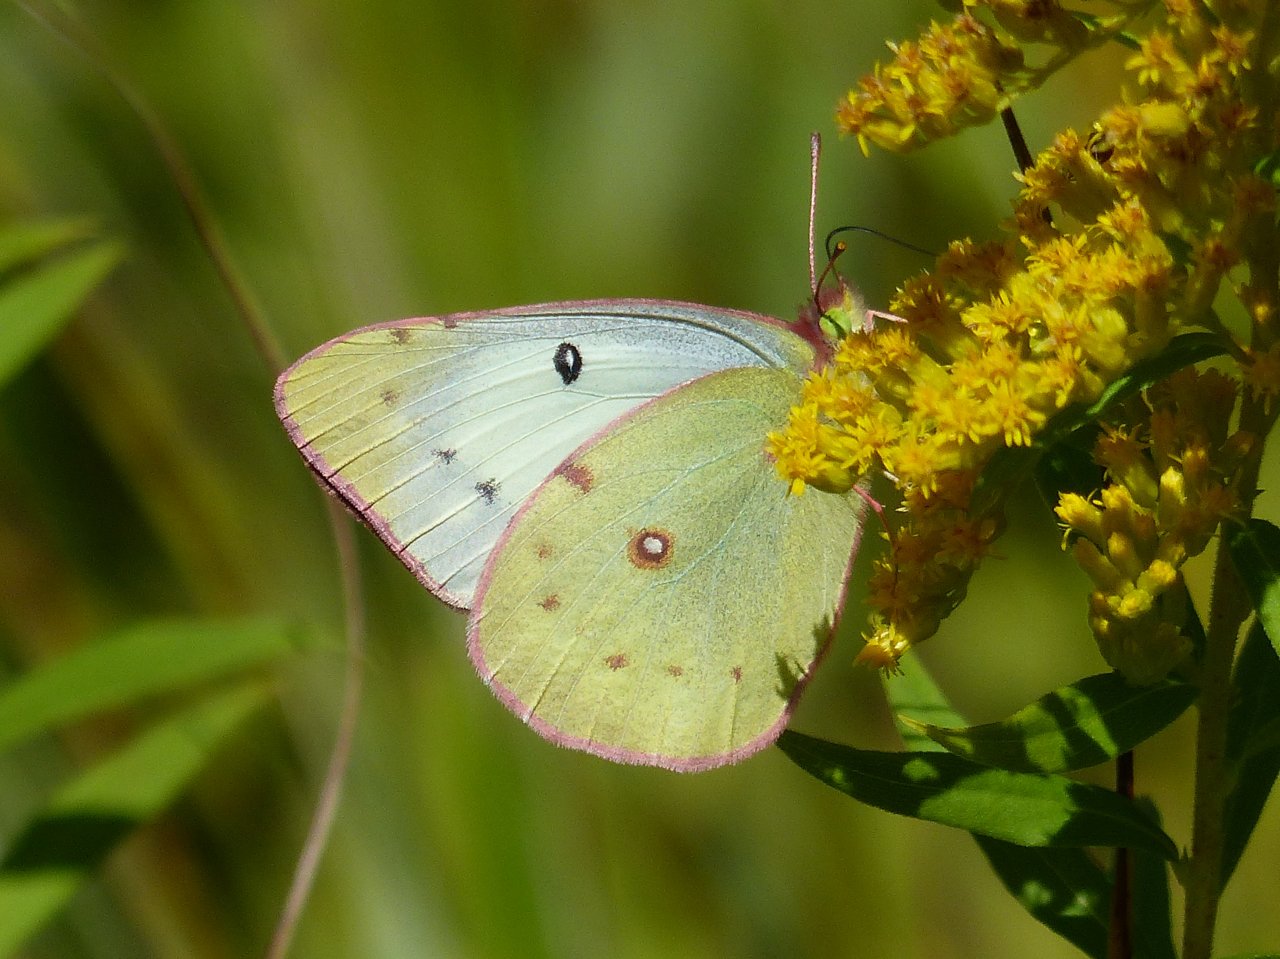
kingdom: Animalia
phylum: Arthropoda
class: Insecta
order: Lepidoptera
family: Pieridae
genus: Colias
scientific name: Colias philodice
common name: Clouded Sulphur
